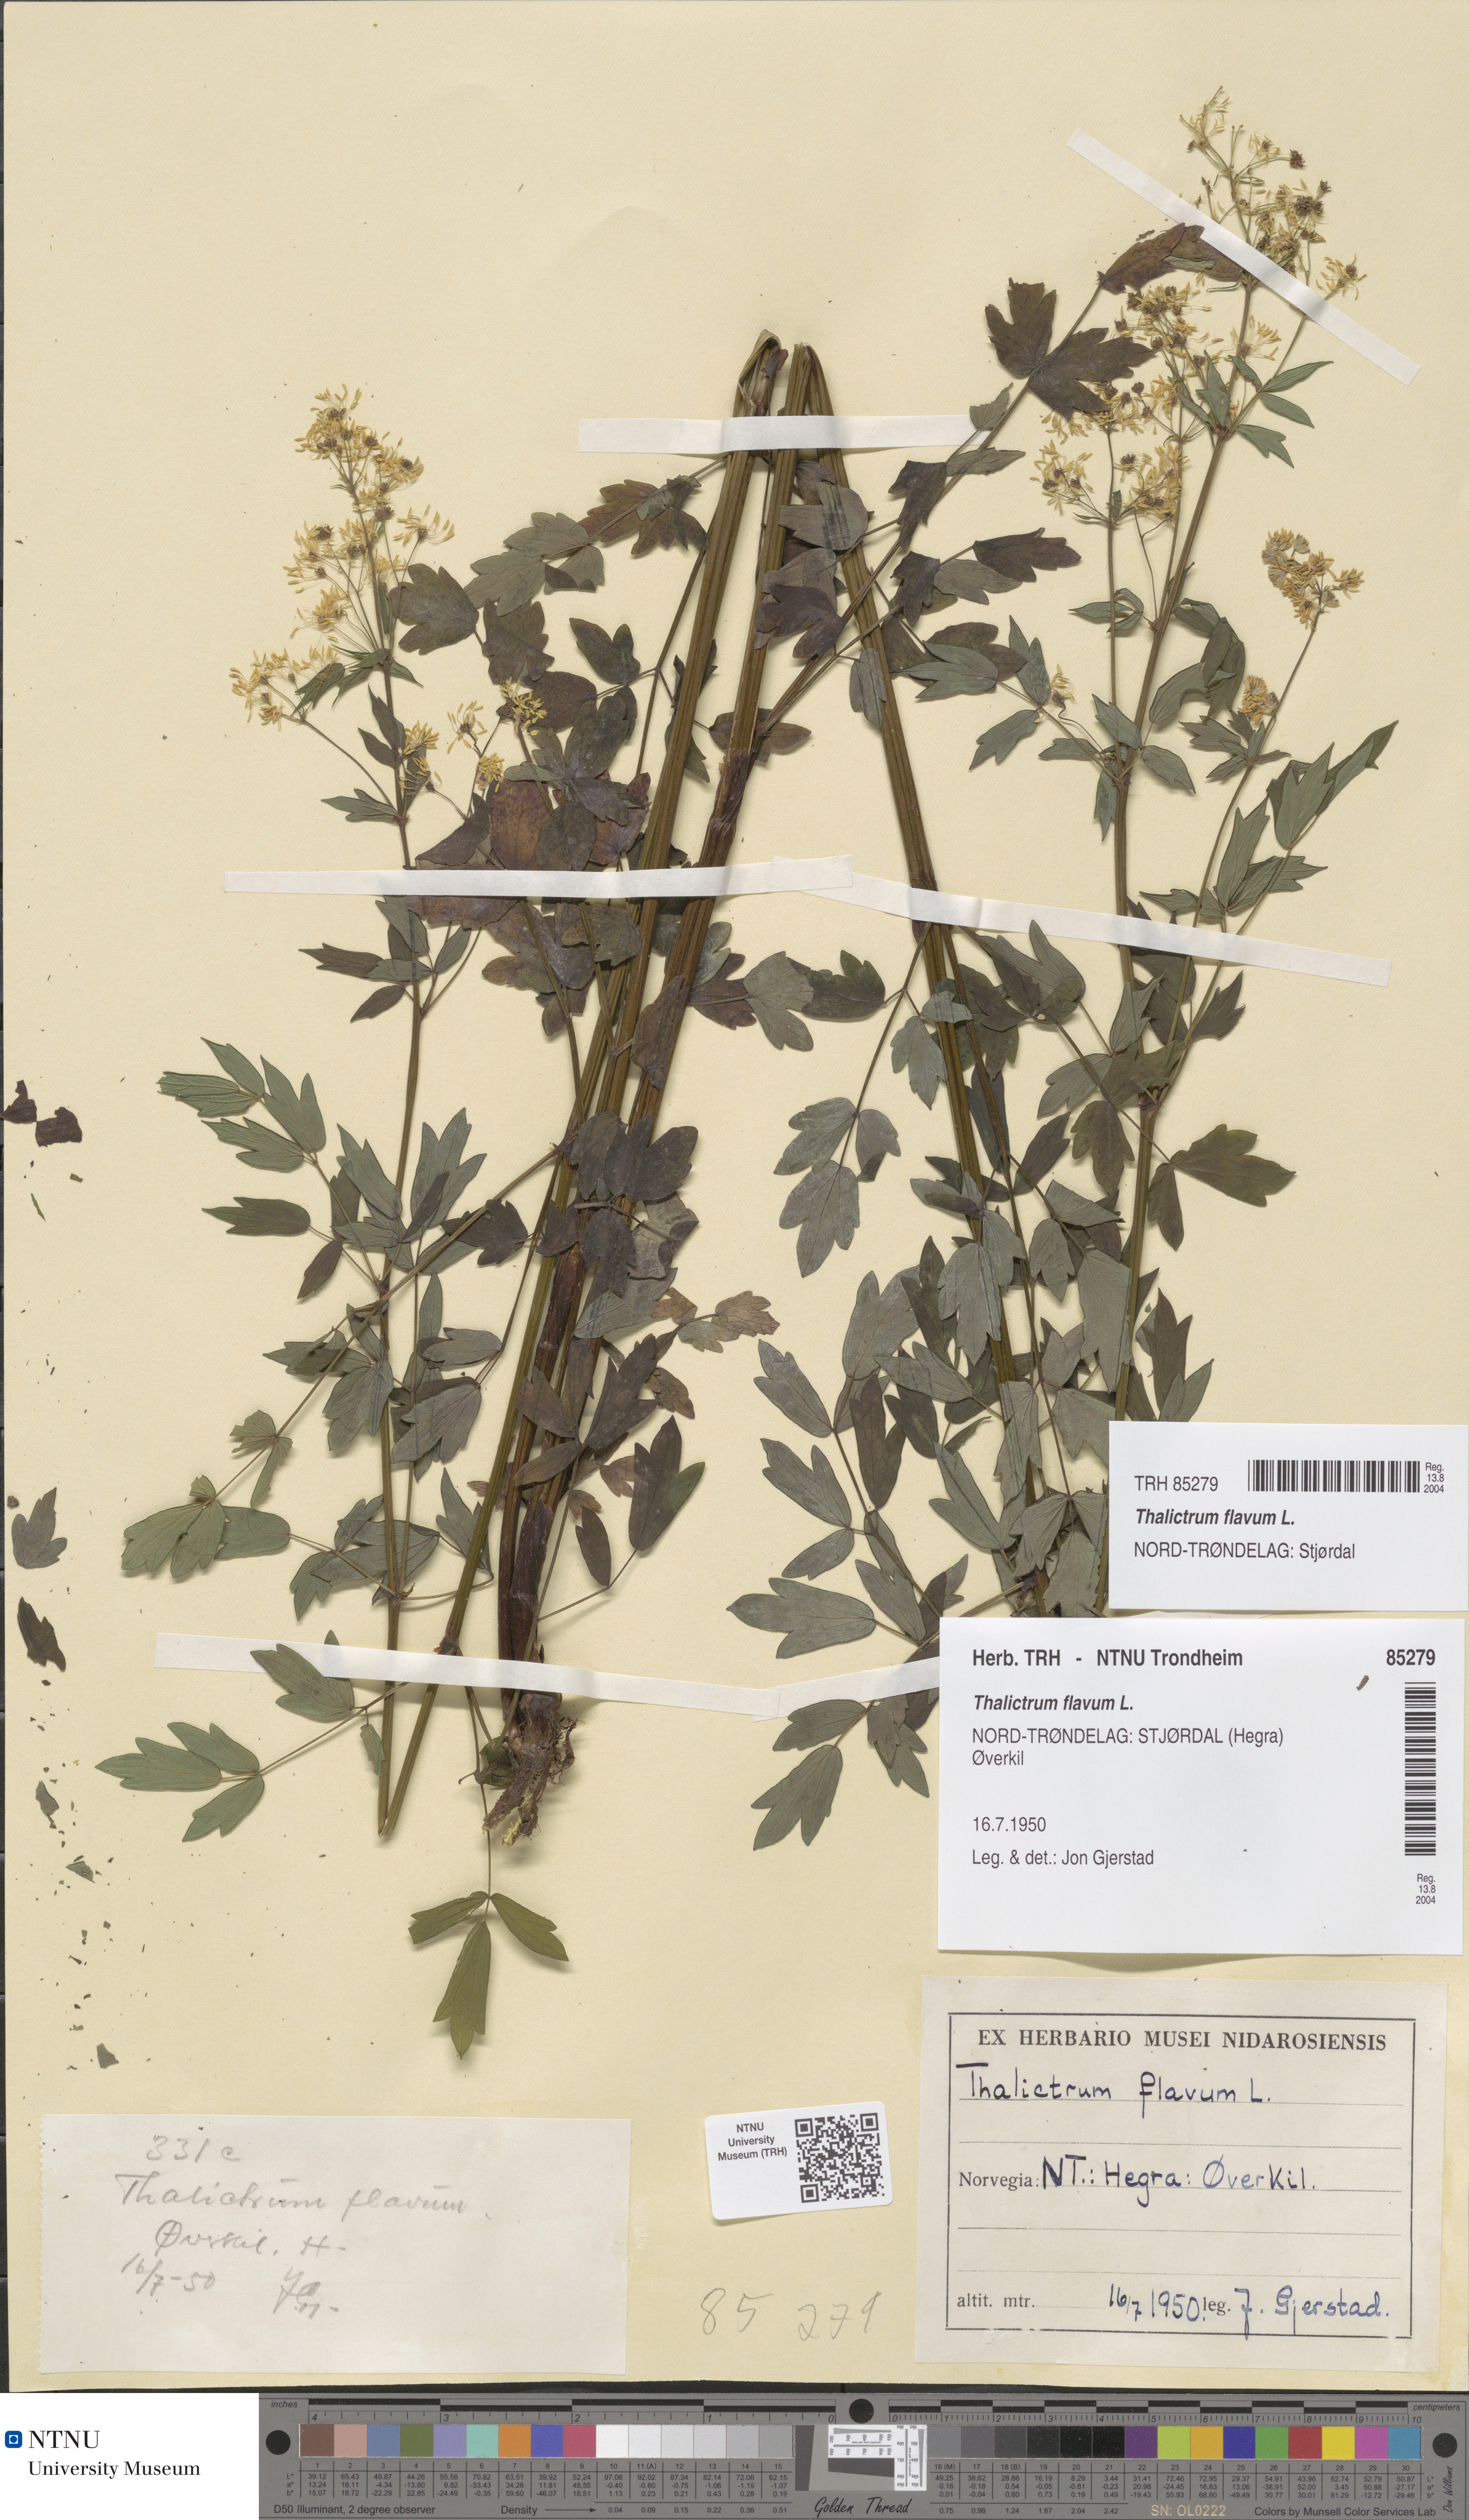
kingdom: Plantae
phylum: Tracheophyta
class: Magnoliopsida
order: Ranunculales
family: Ranunculaceae
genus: Thalictrum
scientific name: Thalictrum flavum
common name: Common meadow-rue
